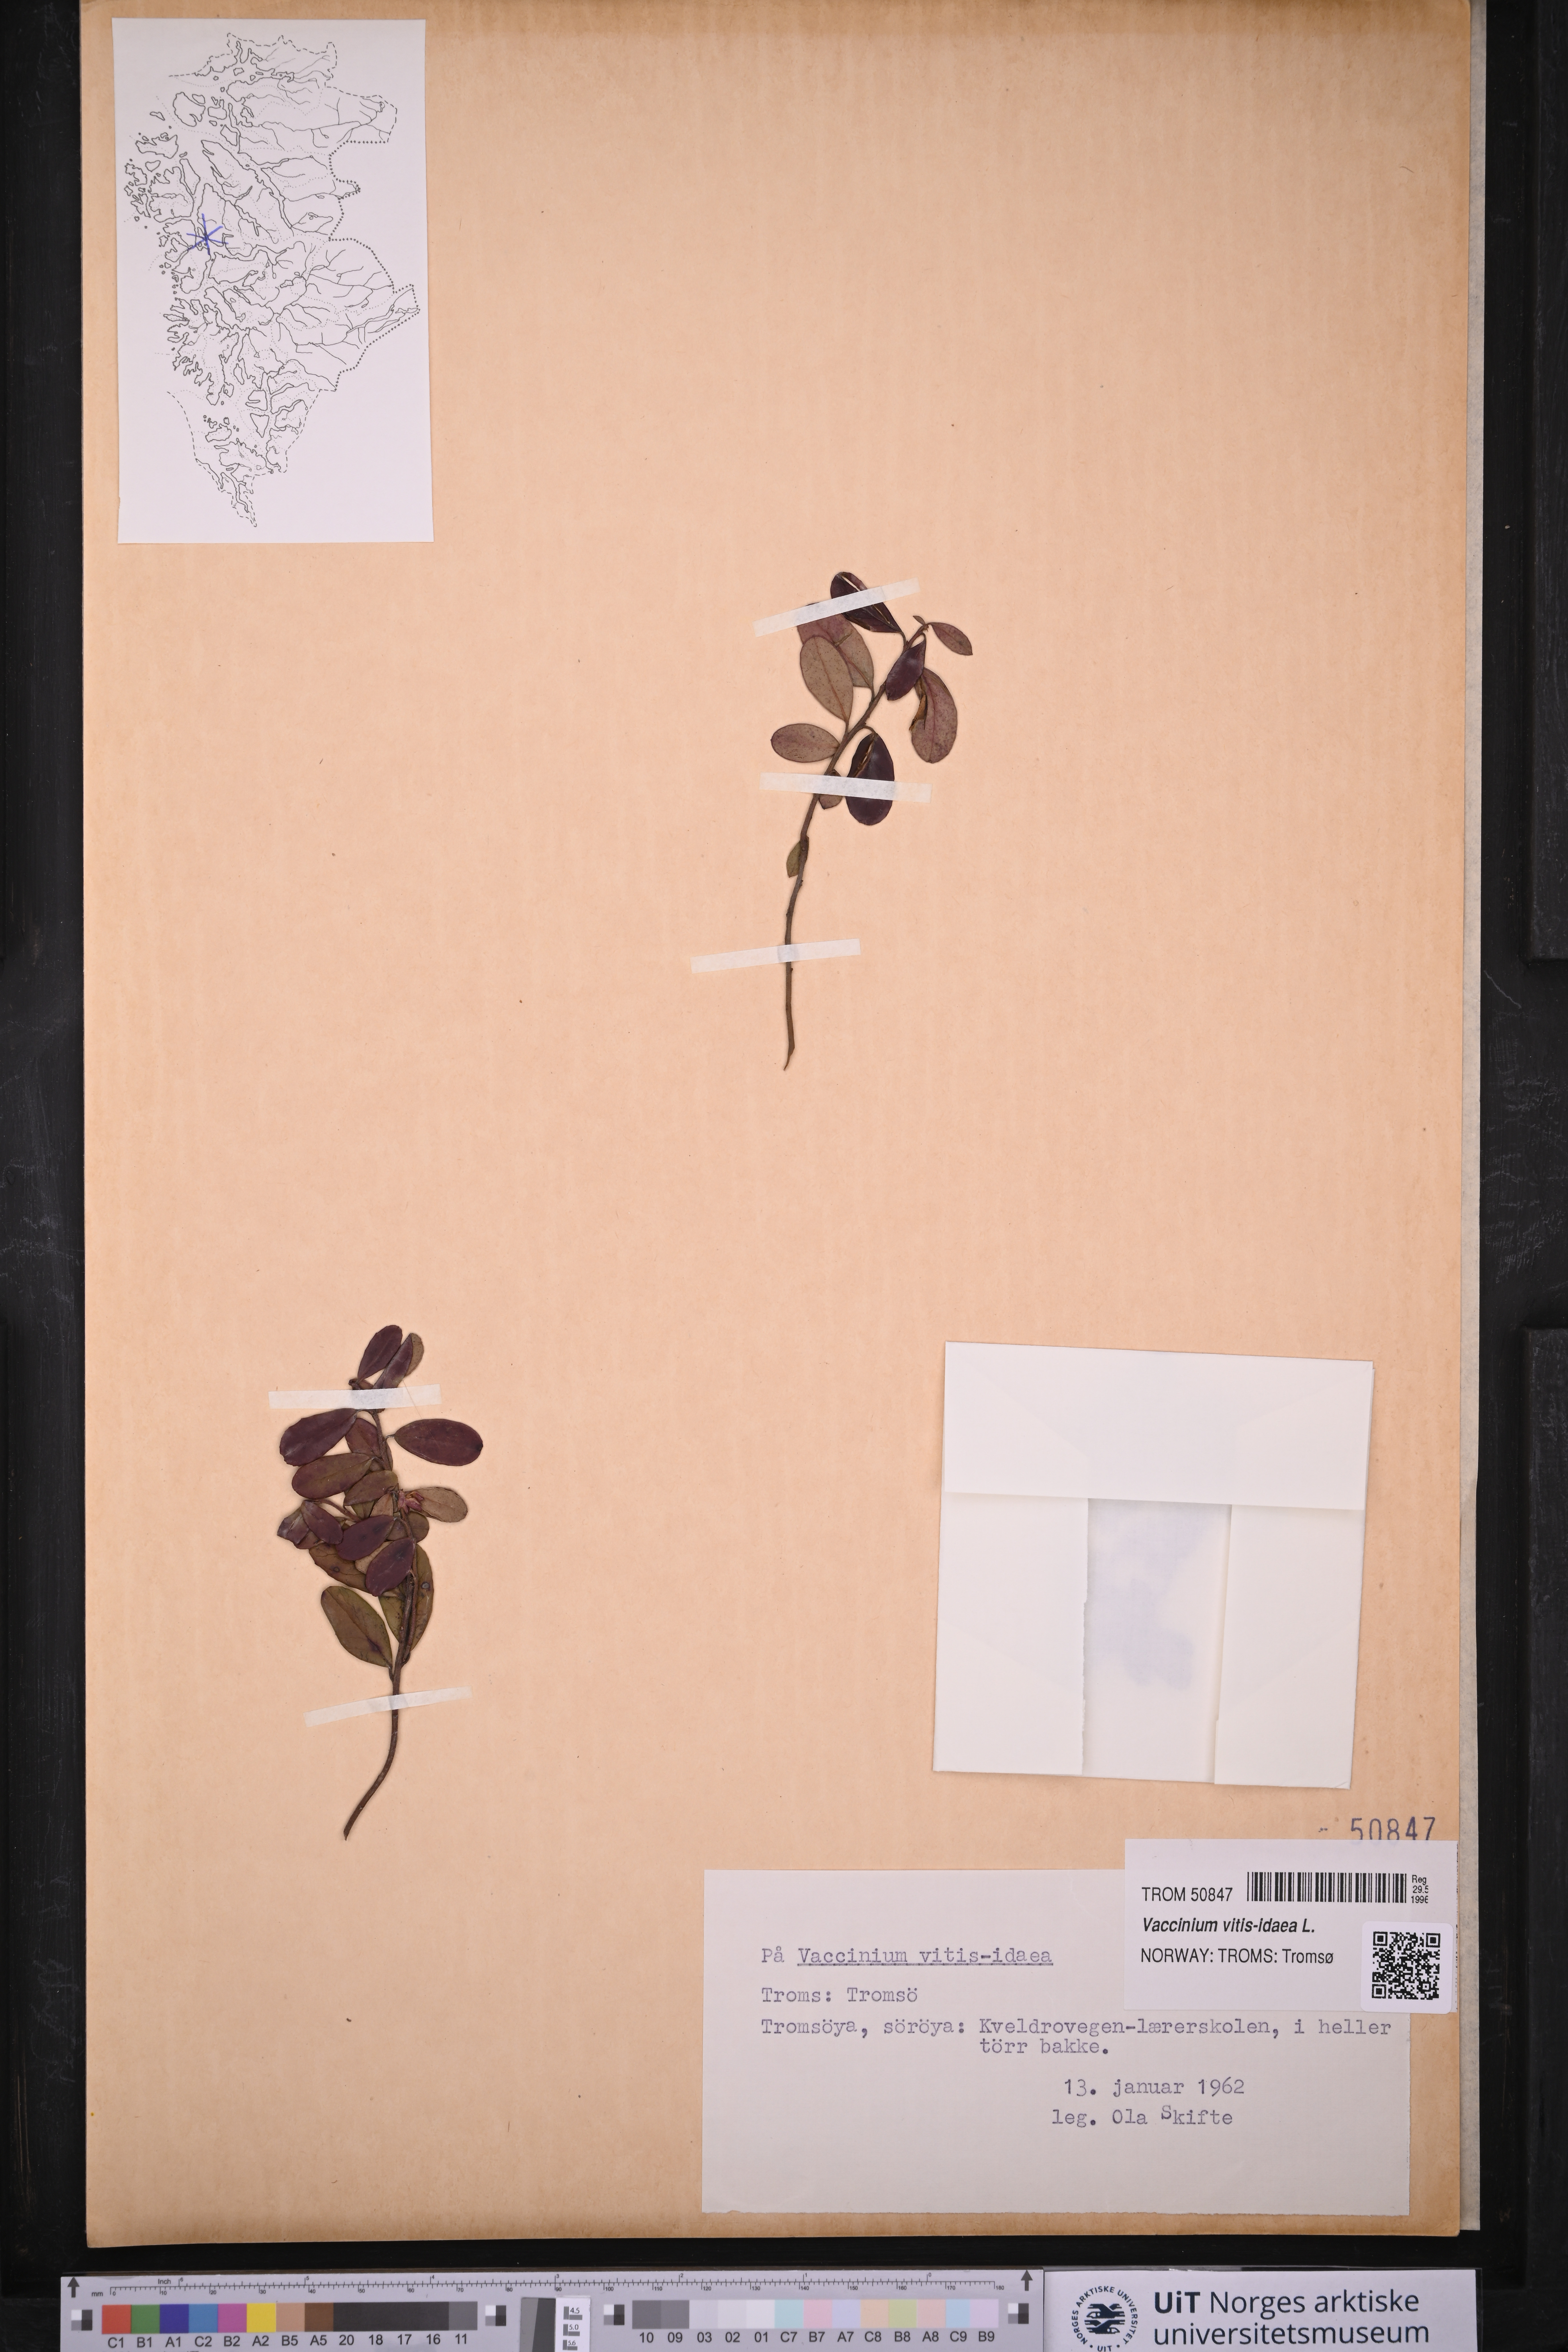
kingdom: Plantae
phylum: Tracheophyta
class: Magnoliopsida
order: Ericales
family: Ericaceae
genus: Vaccinium
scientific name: Vaccinium vitis-idaea
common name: Cowberry
